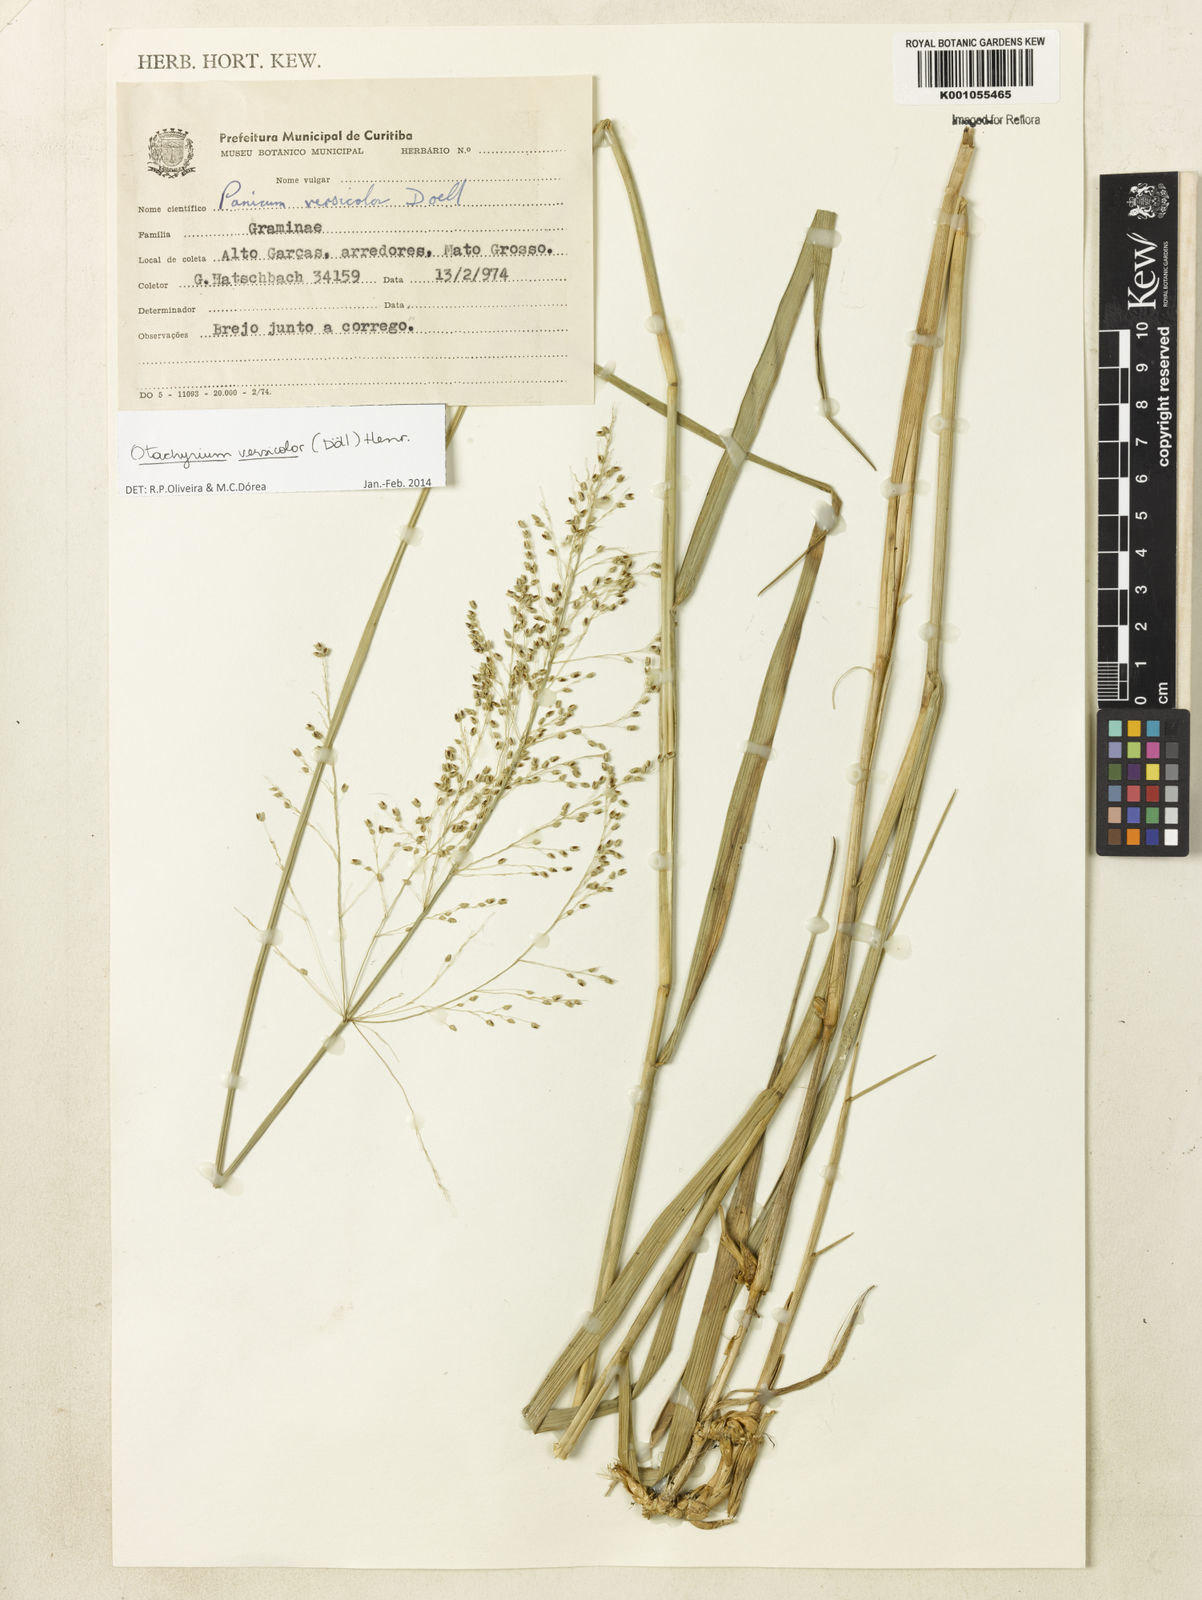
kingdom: Plantae
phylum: Tracheophyta
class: Liliopsida
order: Poales
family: Poaceae
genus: Otachyrium
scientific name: Otachyrium
